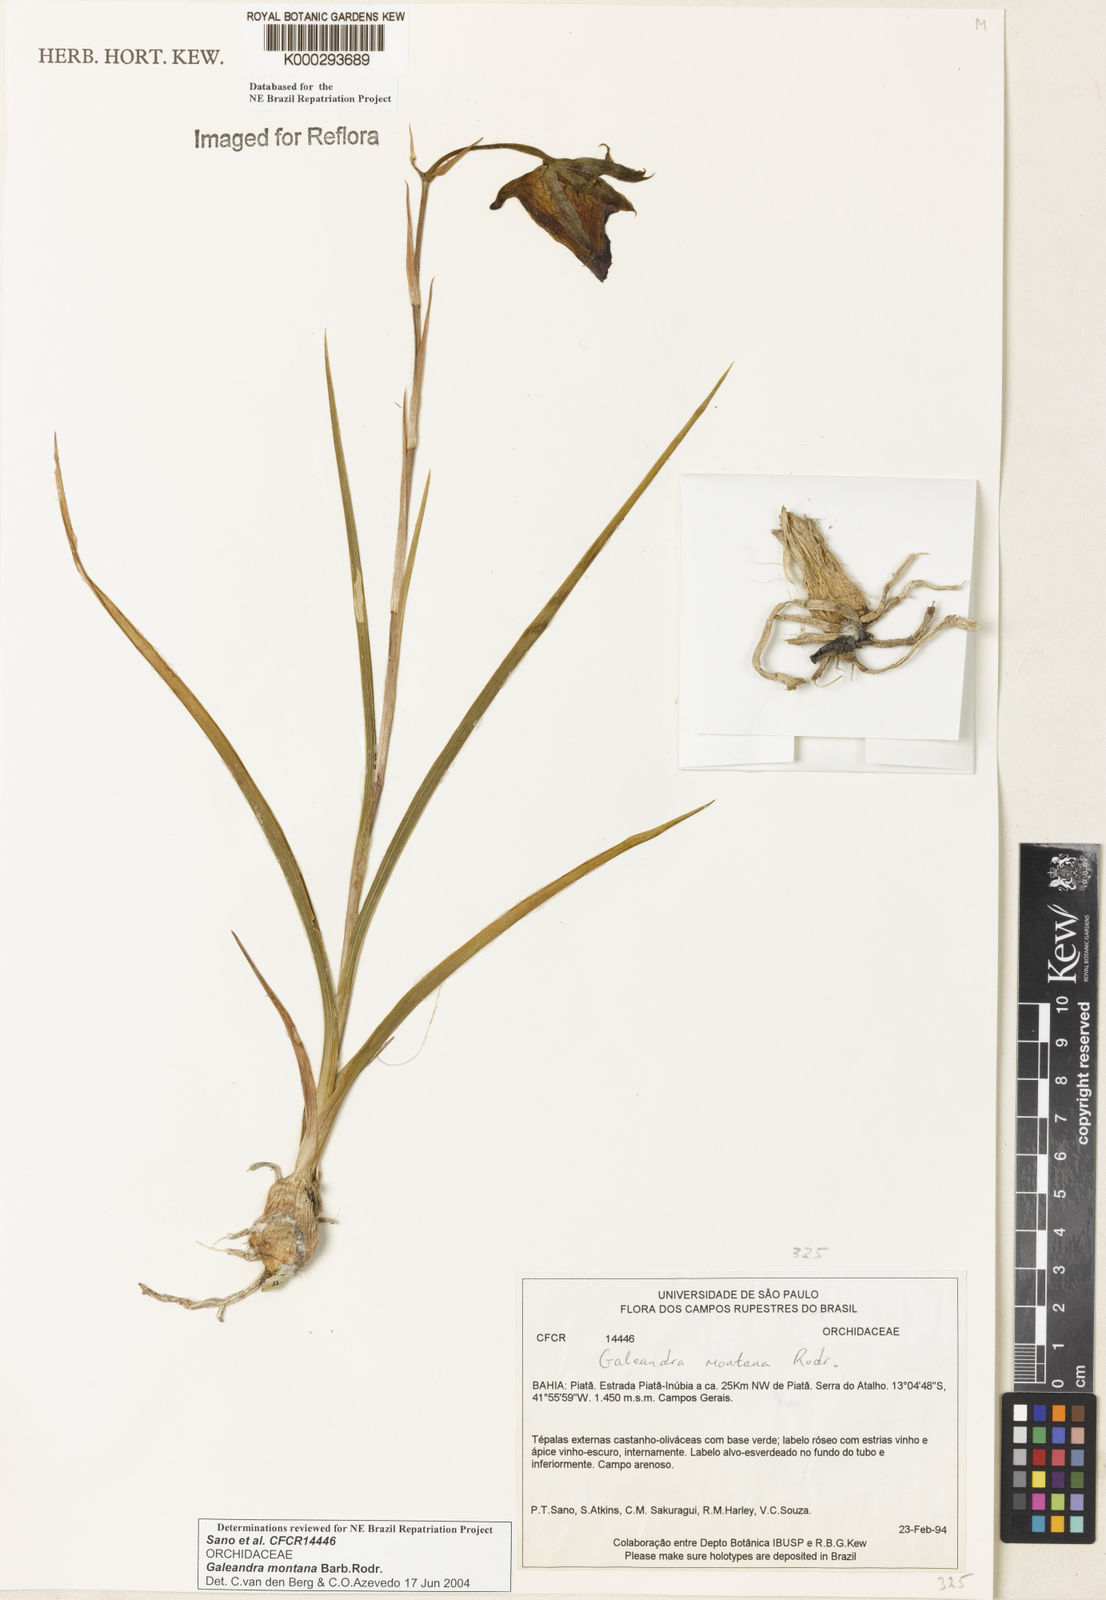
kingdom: Plantae
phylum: Tracheophyta
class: Liliopsida
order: Asparagales
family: Orchidaceae
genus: Galeandra
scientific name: Galeandra montana
